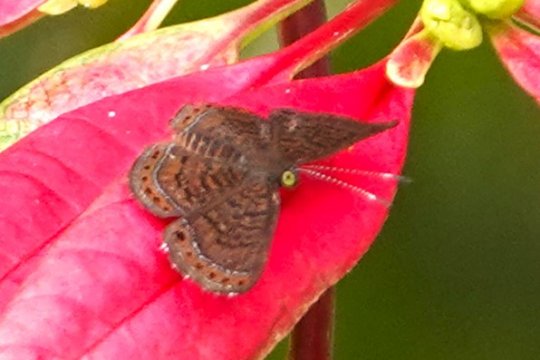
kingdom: Animalia
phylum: Arthropoda
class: Insecta
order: Lepidoptera
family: Riodinidae
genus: Detritivora
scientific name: Detritivora
